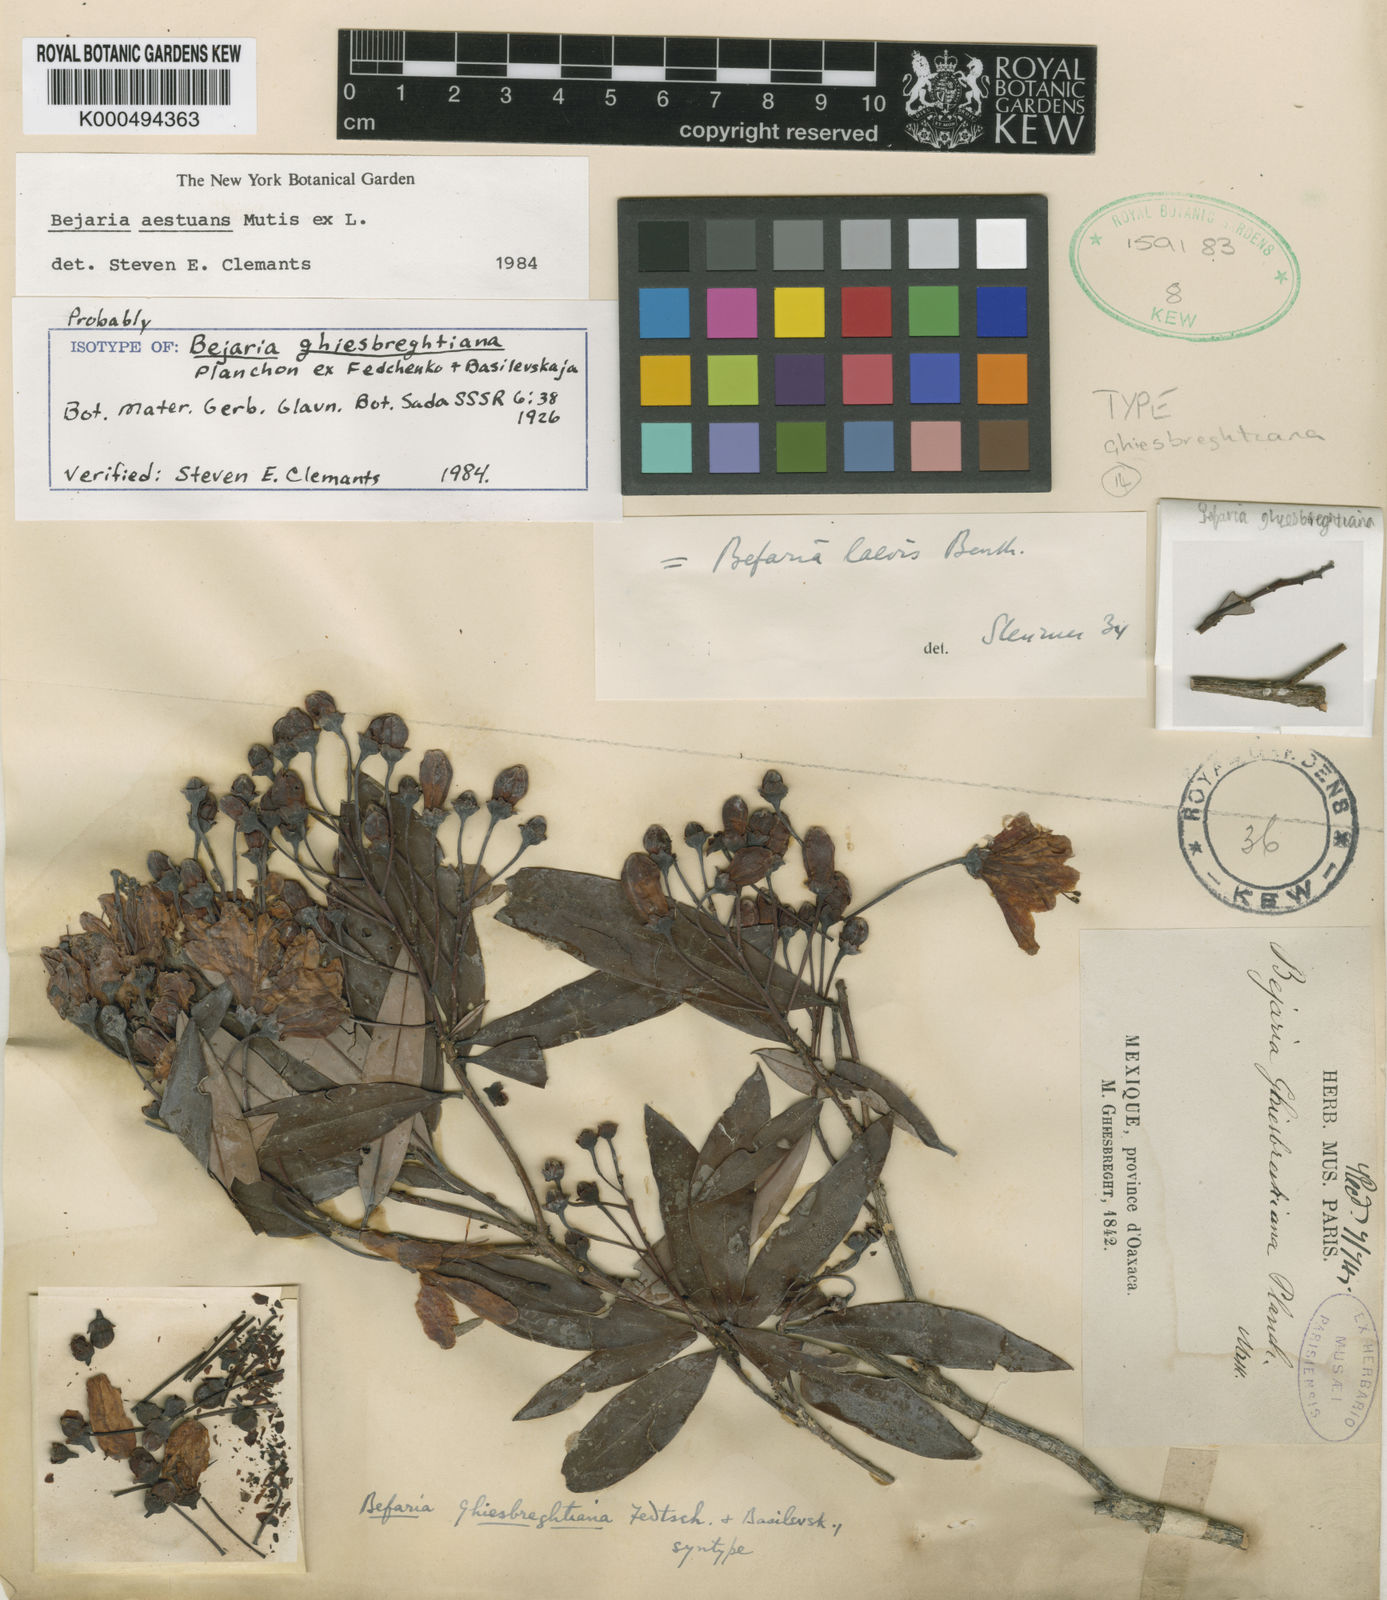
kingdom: Plantae
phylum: Tracheophyta
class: Magnoliopsida
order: Ericales
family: Ericaceae
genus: Bejaria
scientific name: Bejaria
